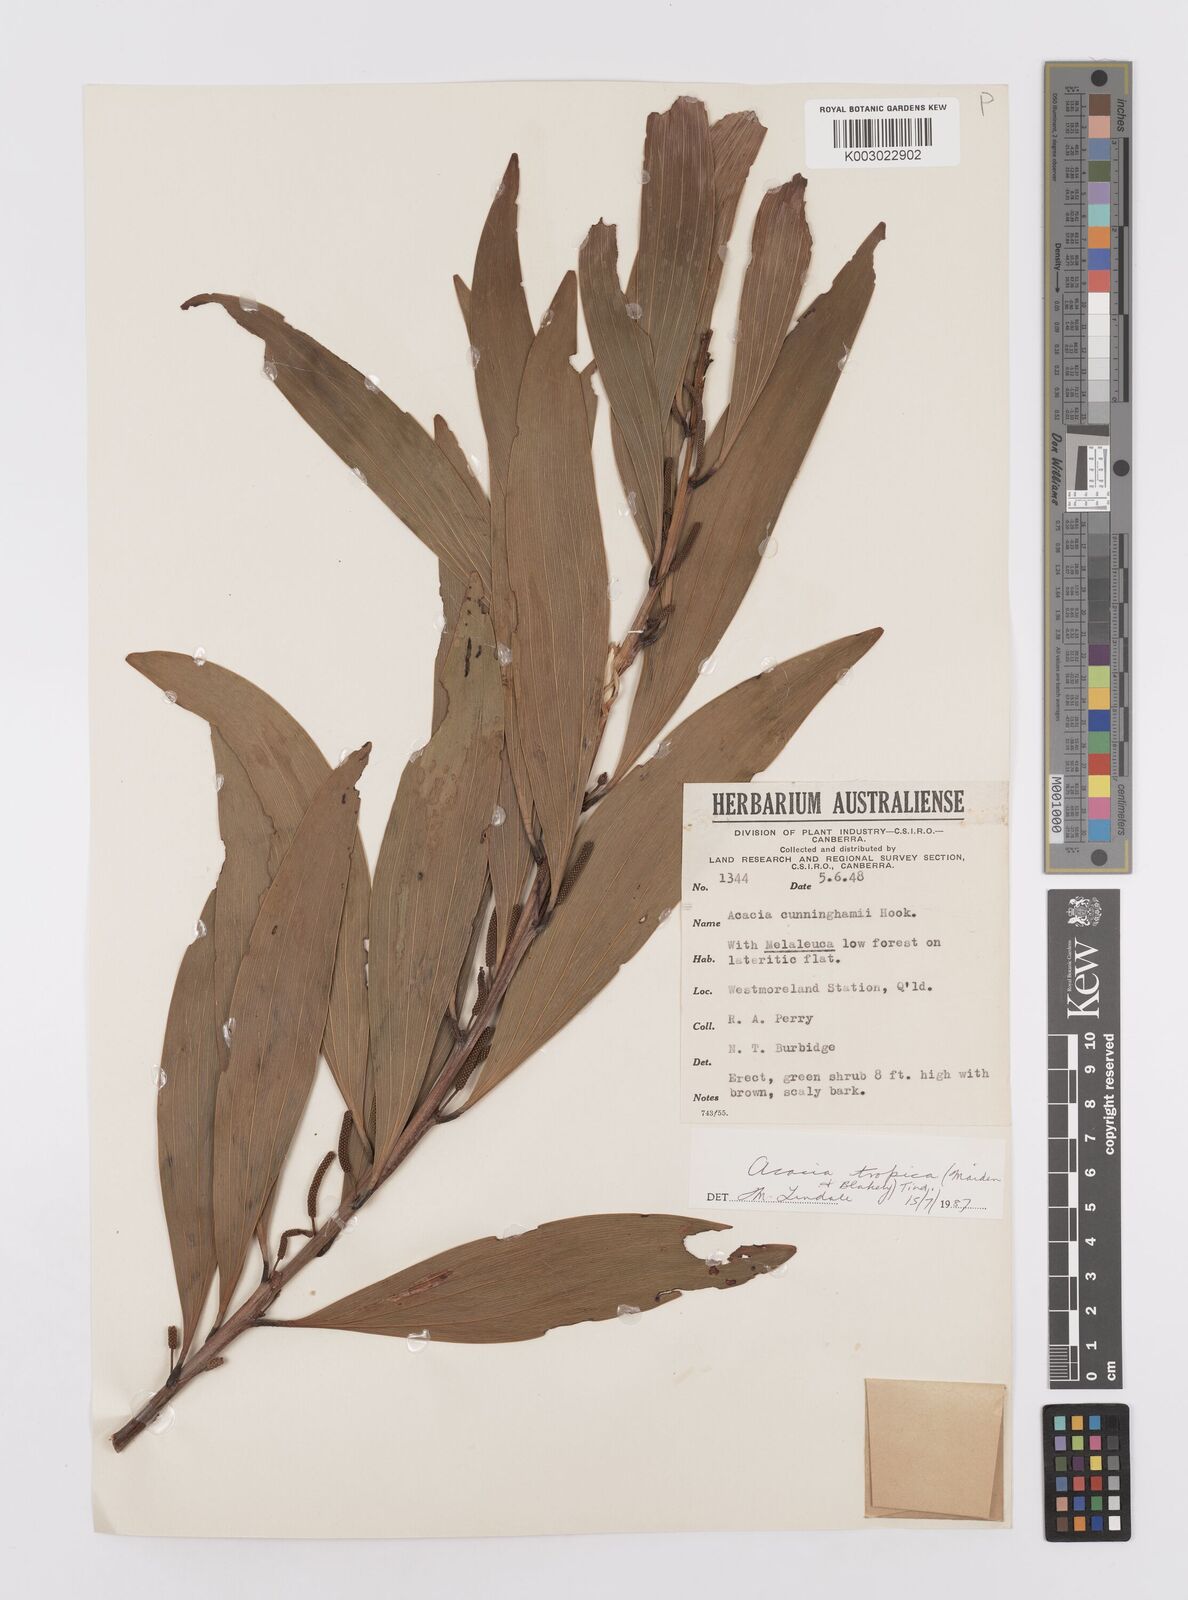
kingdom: Plantae
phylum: Tracheophyta
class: Magnoliopsida
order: Fabales
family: Fabaceae
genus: Acacia
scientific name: Acacia tropica
